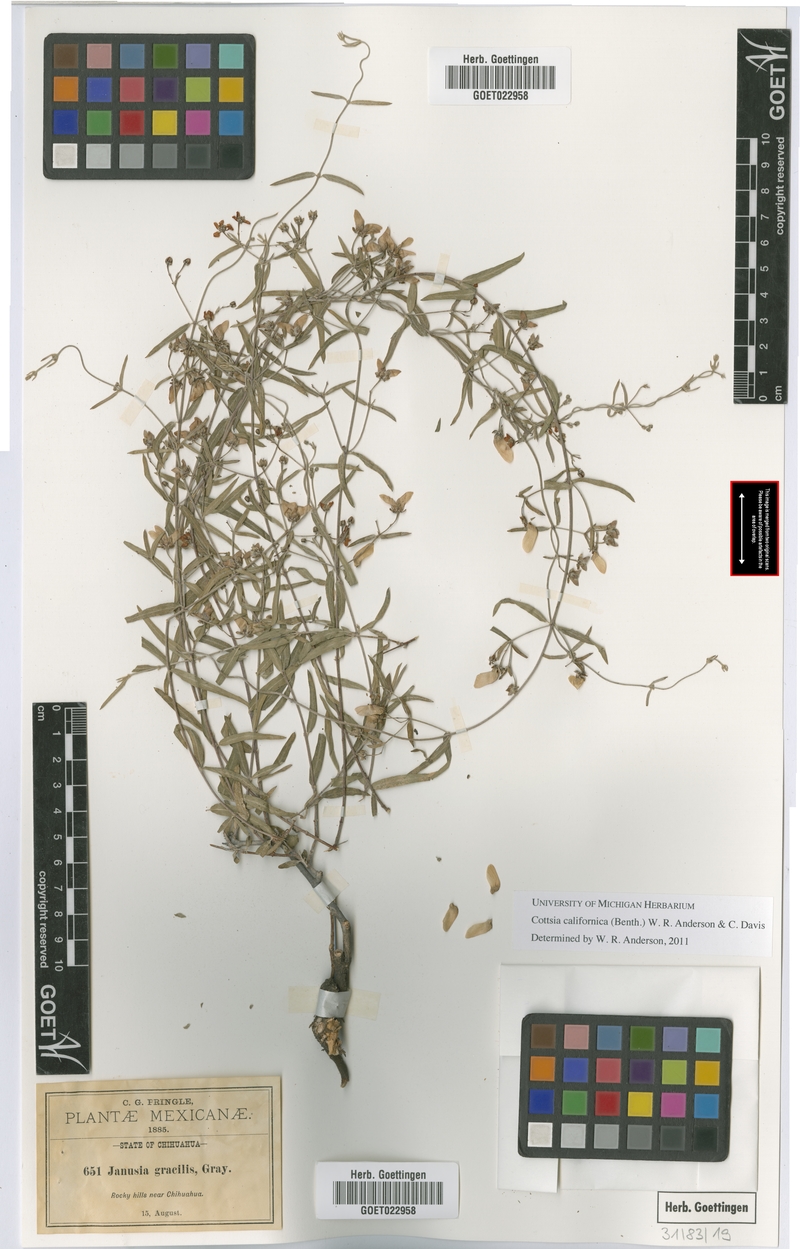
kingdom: Plantae
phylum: Tracheophyta
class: Magnoliopsida
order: Malpighiales
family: Malpighiaceae
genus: Cottsia
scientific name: Cottsia californica
